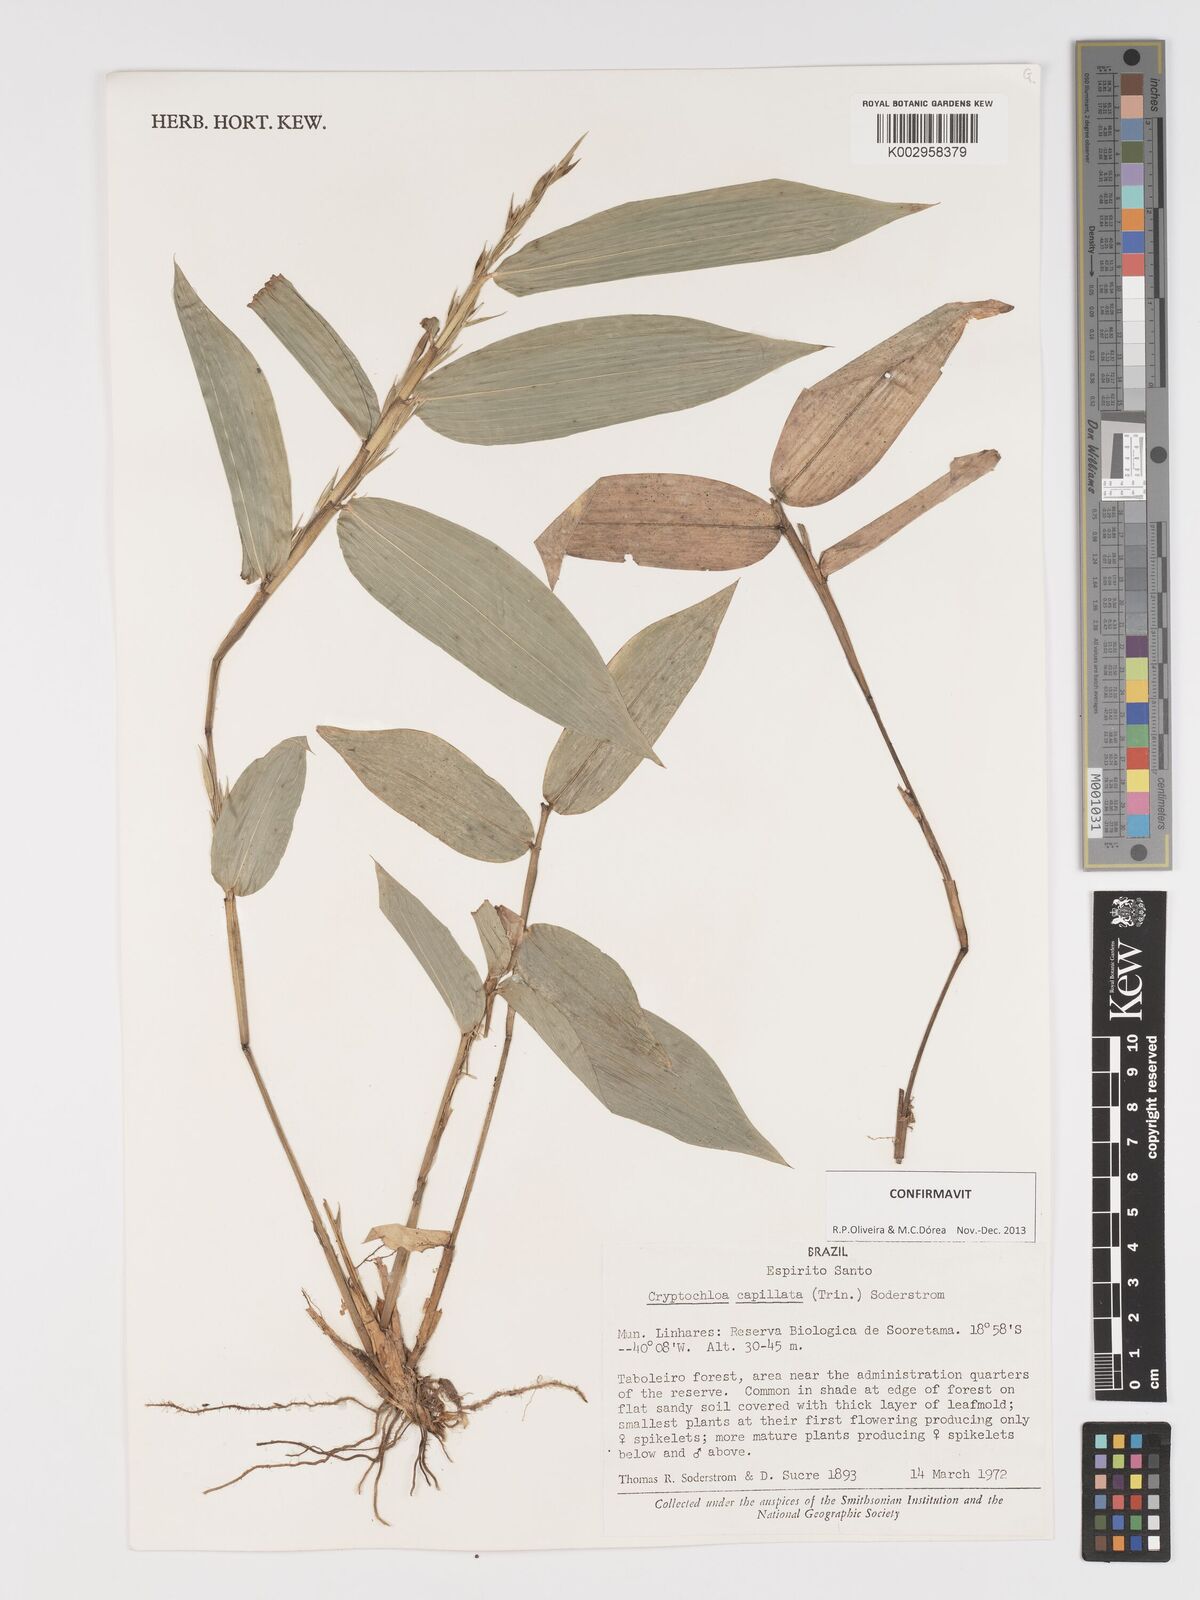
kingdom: Plantae
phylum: Tracheophyta
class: Liliopsida
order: Poales
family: Poaceae
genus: Cryptochloa
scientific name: Cryptochloa capillata
